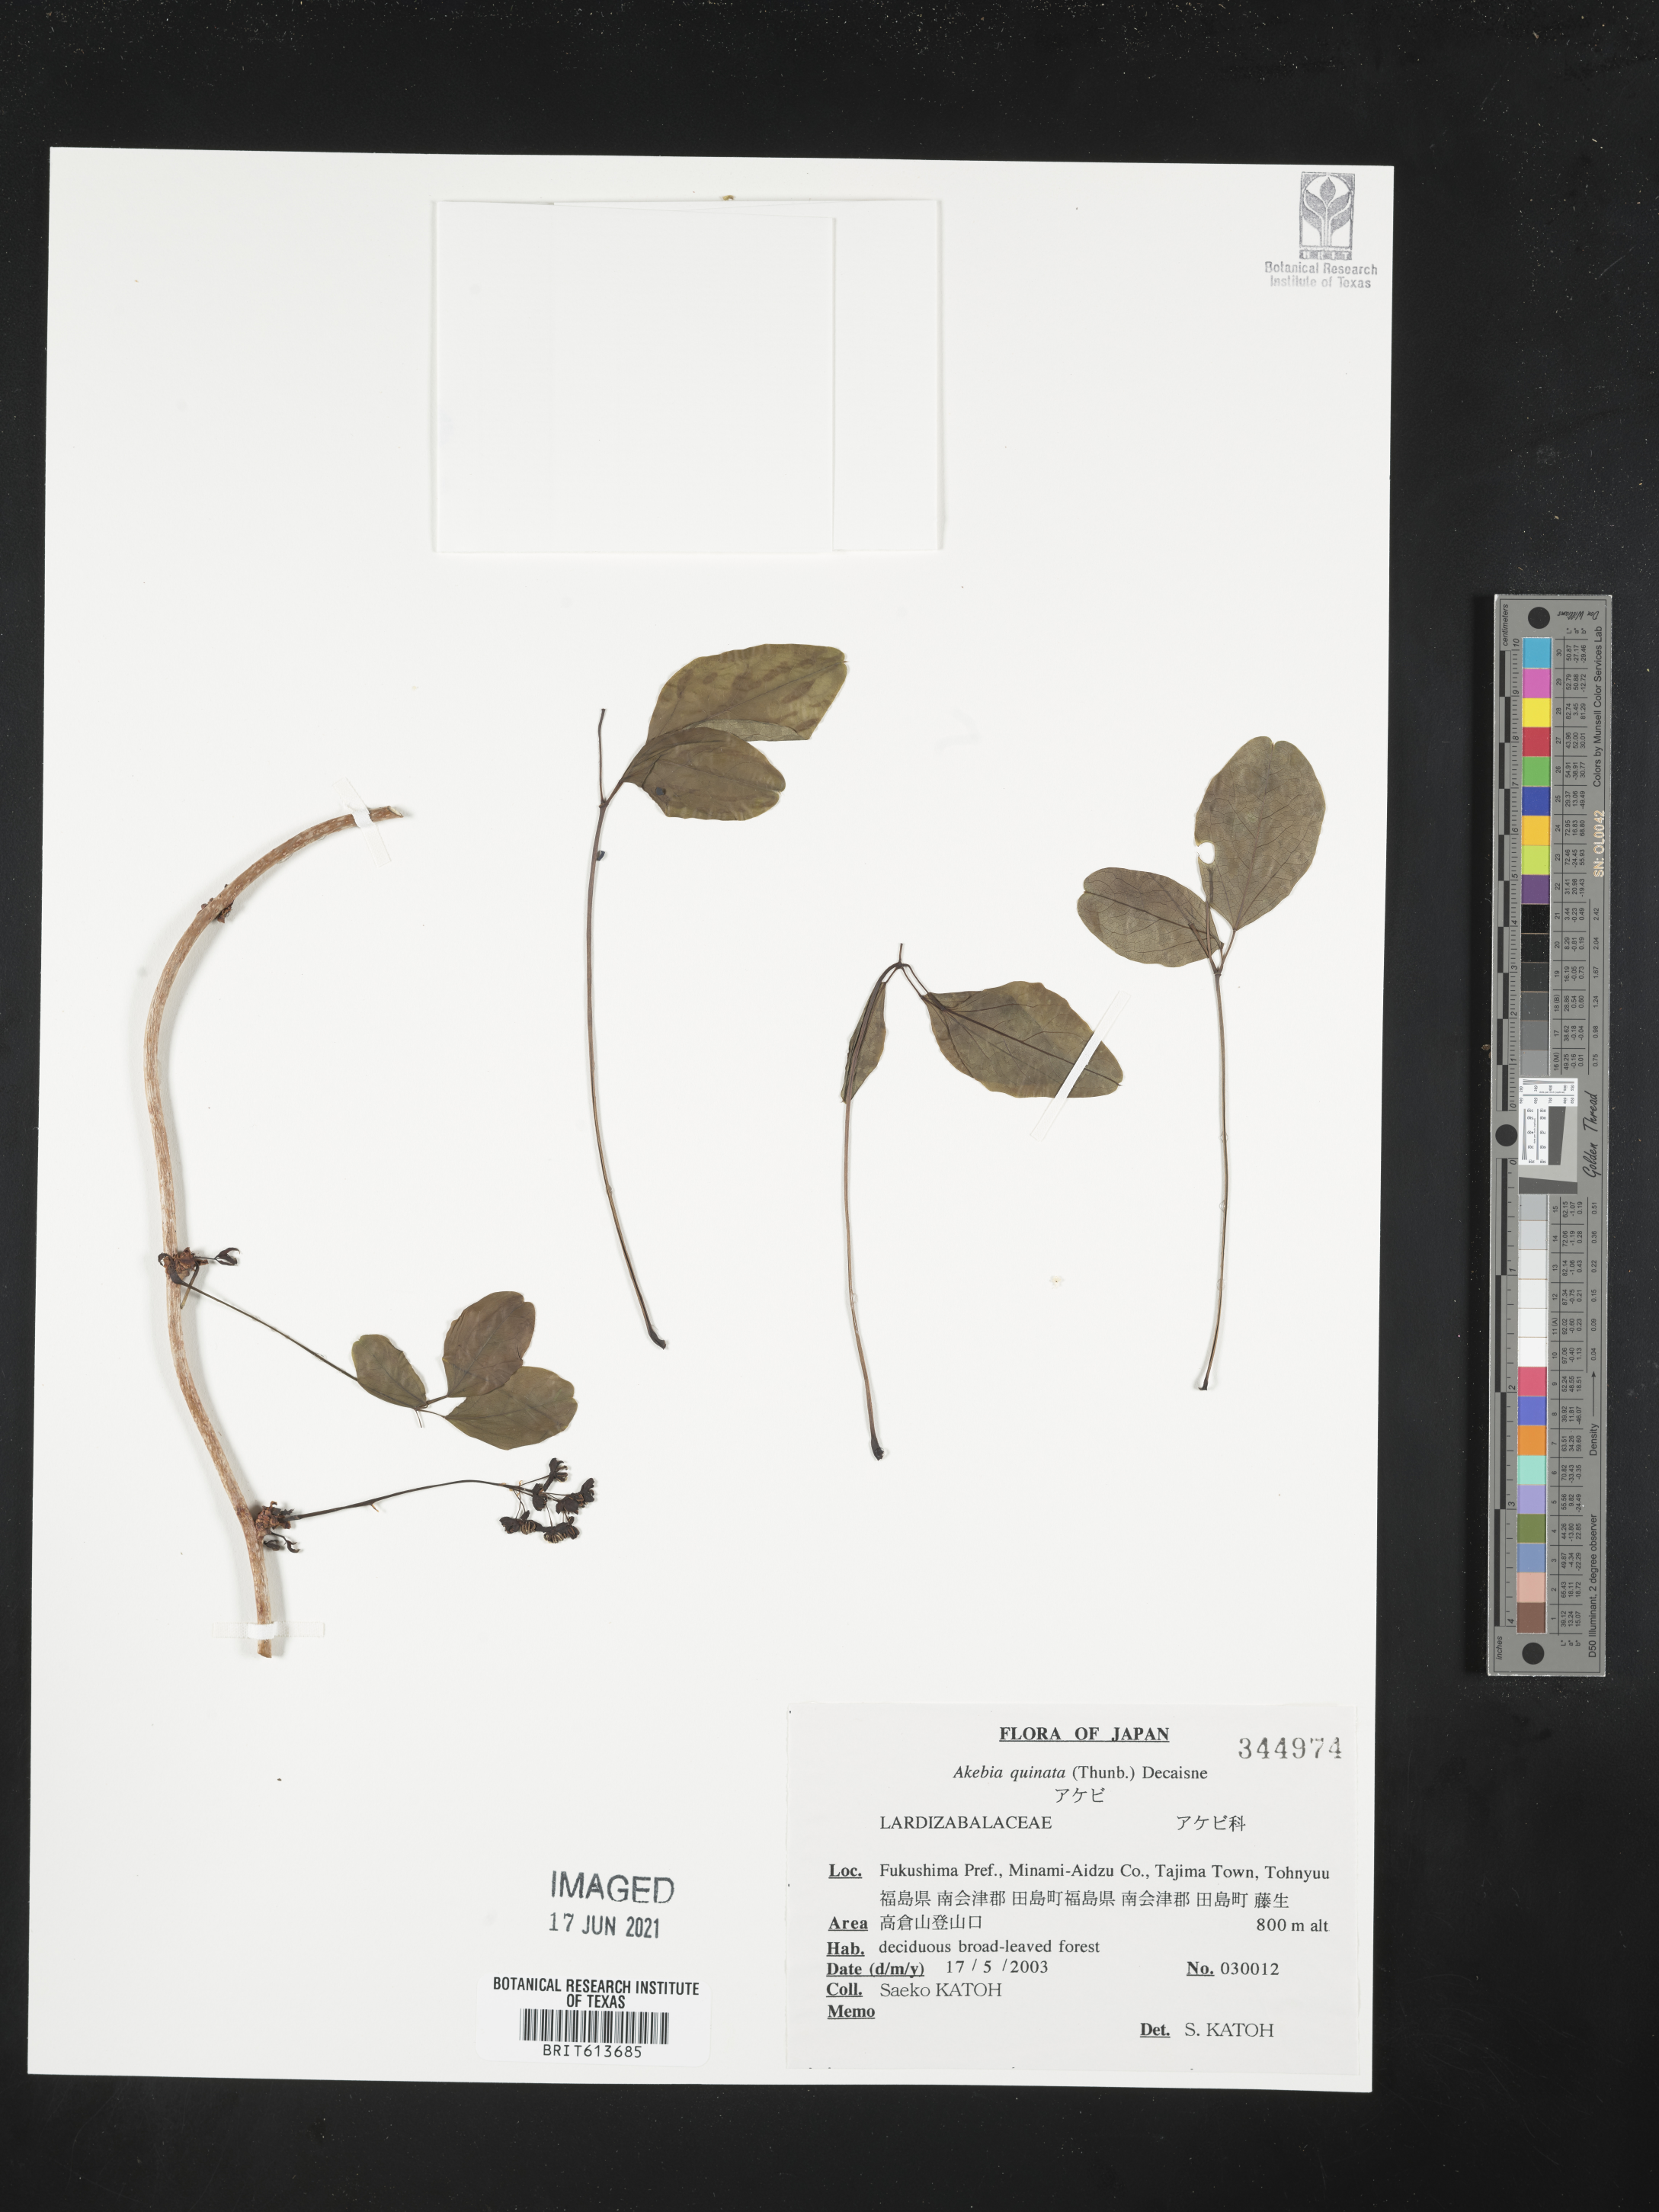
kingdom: Plantae
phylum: Tracheophyta
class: Magnoliopsida
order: Ranunculales
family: Lardizabalaceae
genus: Akebia
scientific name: Akebia quinata
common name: Five-leaf akebia
